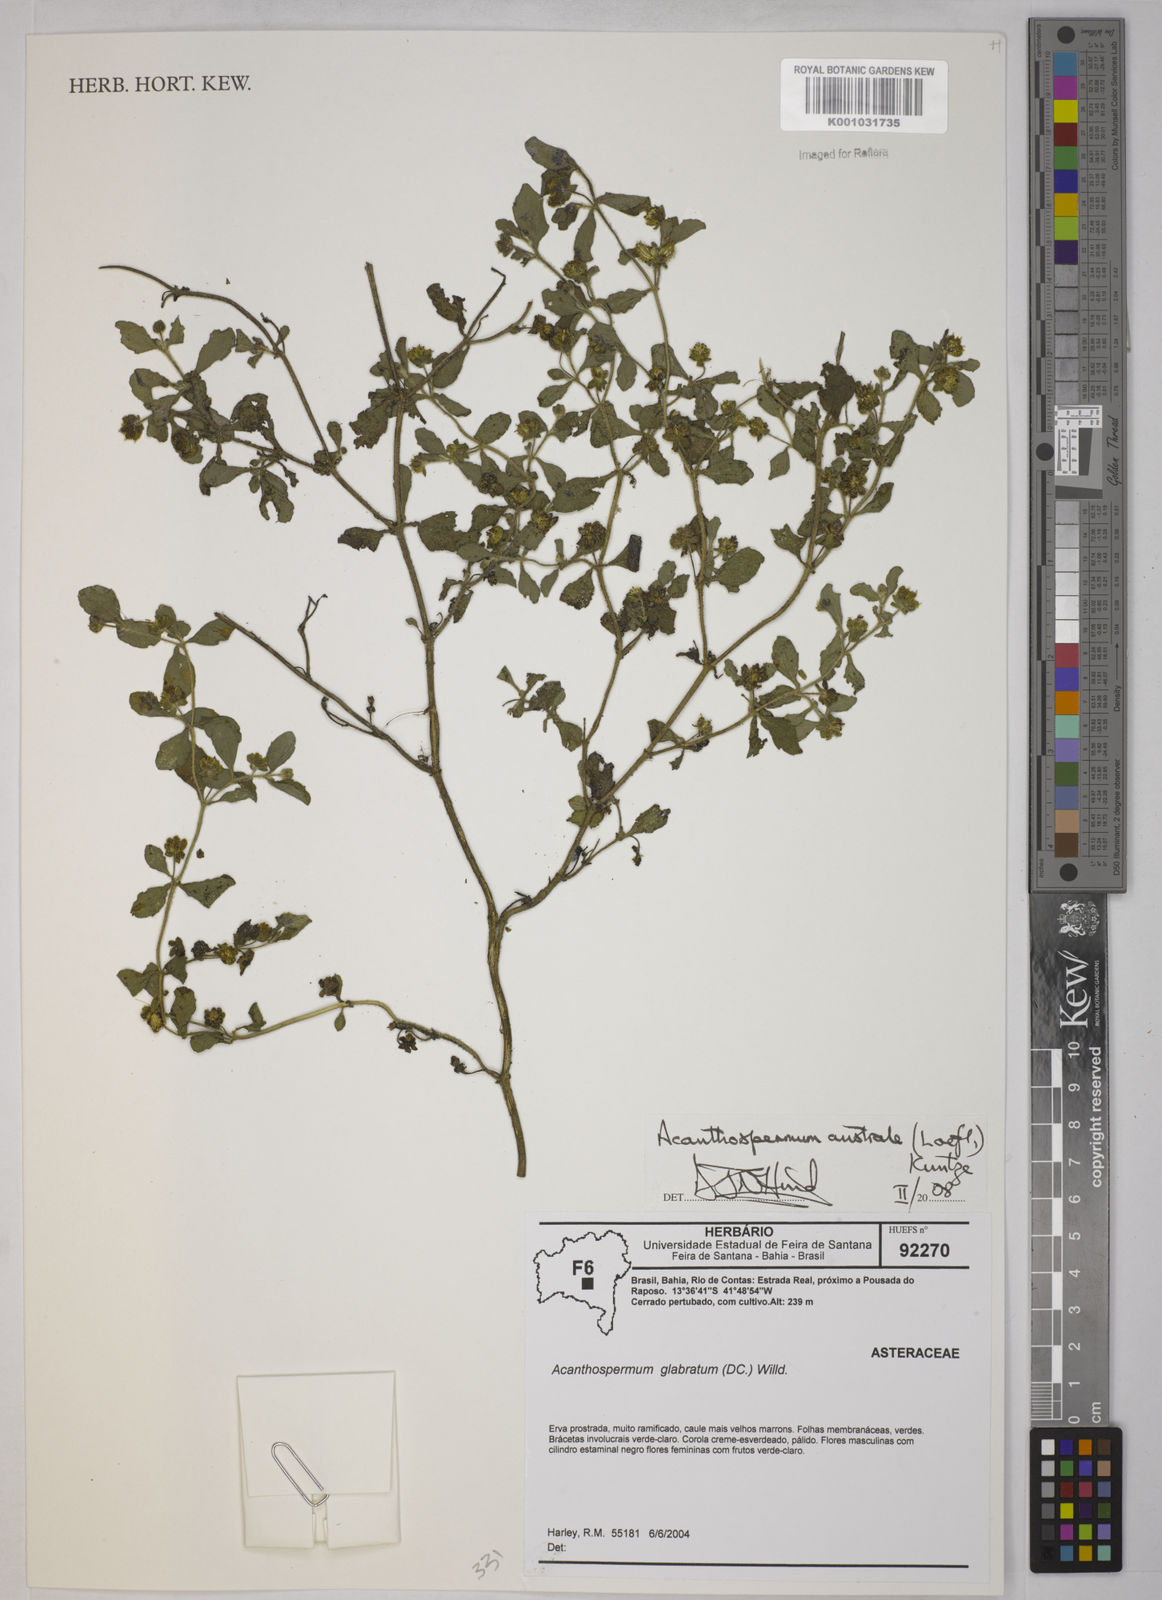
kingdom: Plantae
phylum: Tracheophyta
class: Magnoliopsida
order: Asterales
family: Asteraceae
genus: Acanthospermum
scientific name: Acanthospermum australe
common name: Paraguayan starbur
